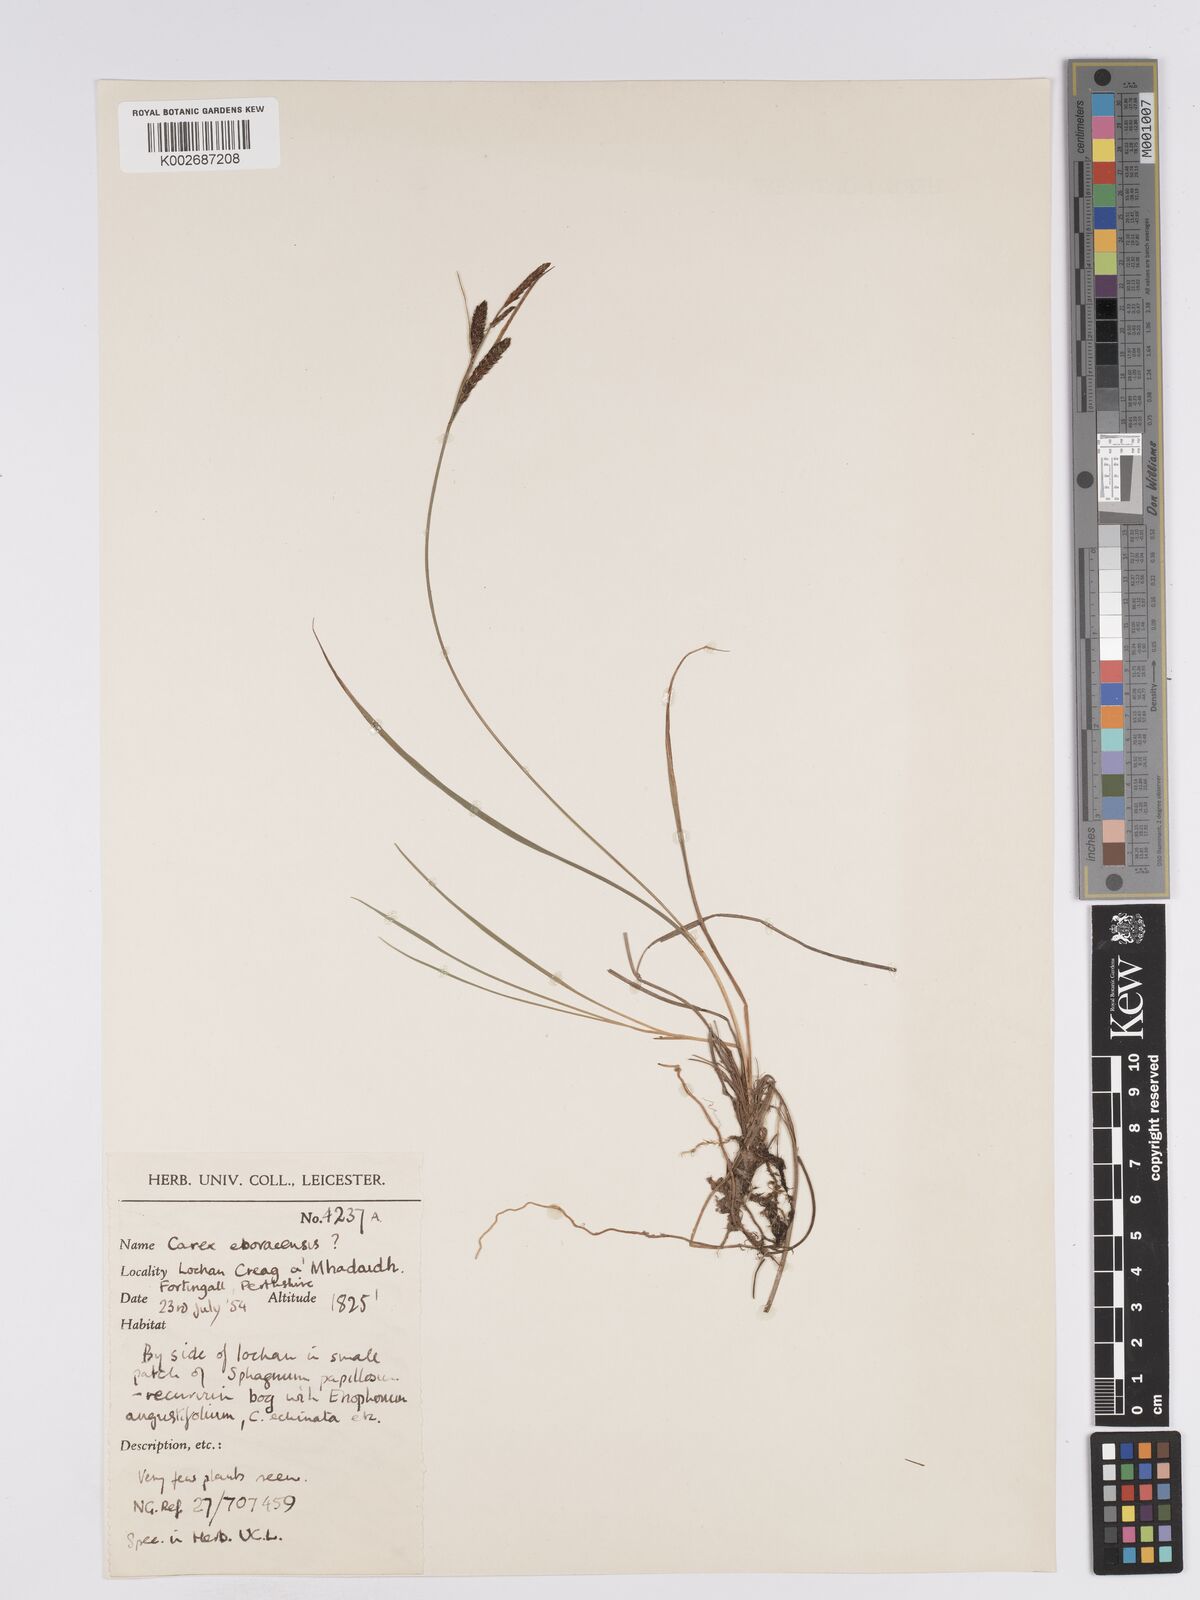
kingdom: Plantae
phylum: Tracheophyta
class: Liliopsida
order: Poales
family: Cyperaceae
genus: Carex
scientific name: Carex nigra
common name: Common sedge
